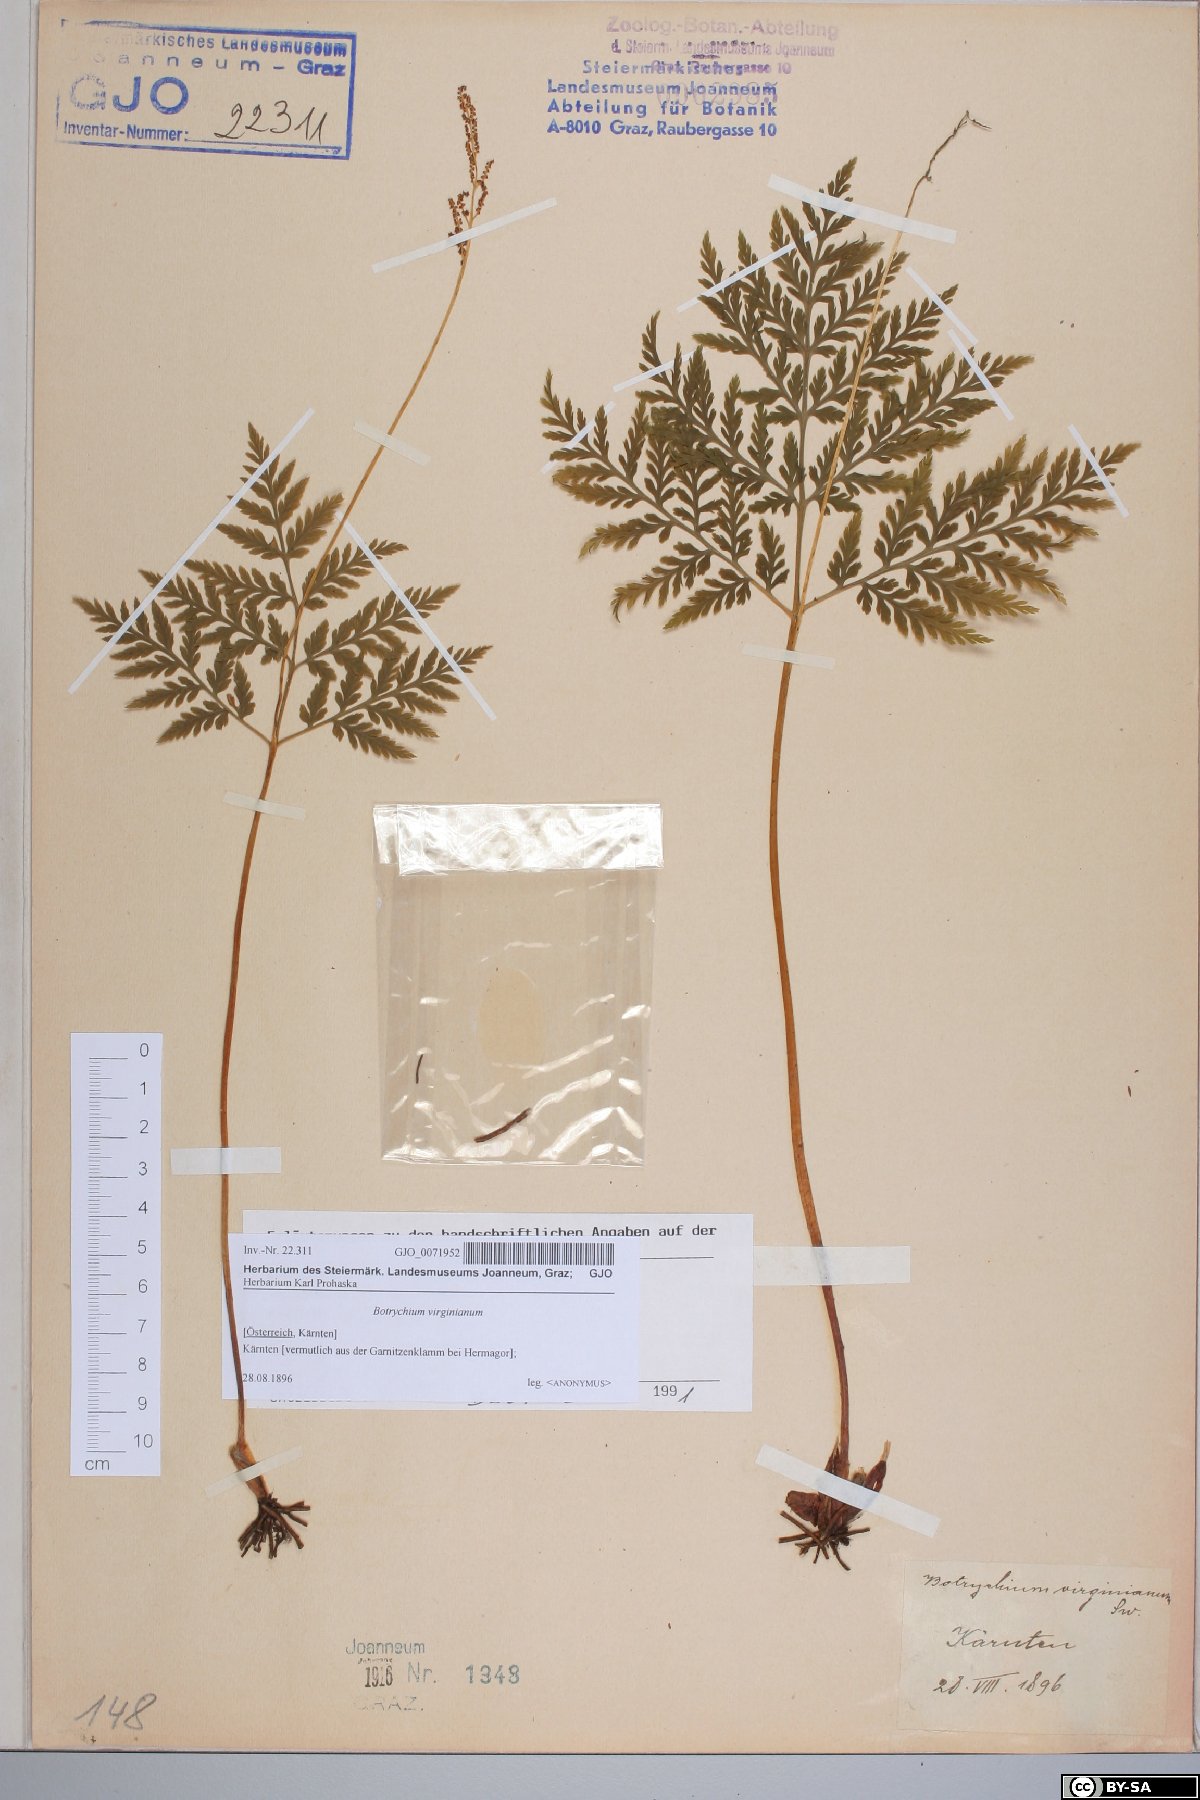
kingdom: Plantae
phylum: Tracheophyta
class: Polypodiopsida
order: Ophioglossales
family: Ophioglossaceae
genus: Botrypus
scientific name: Botrypus virginianus
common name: Common grapefern
